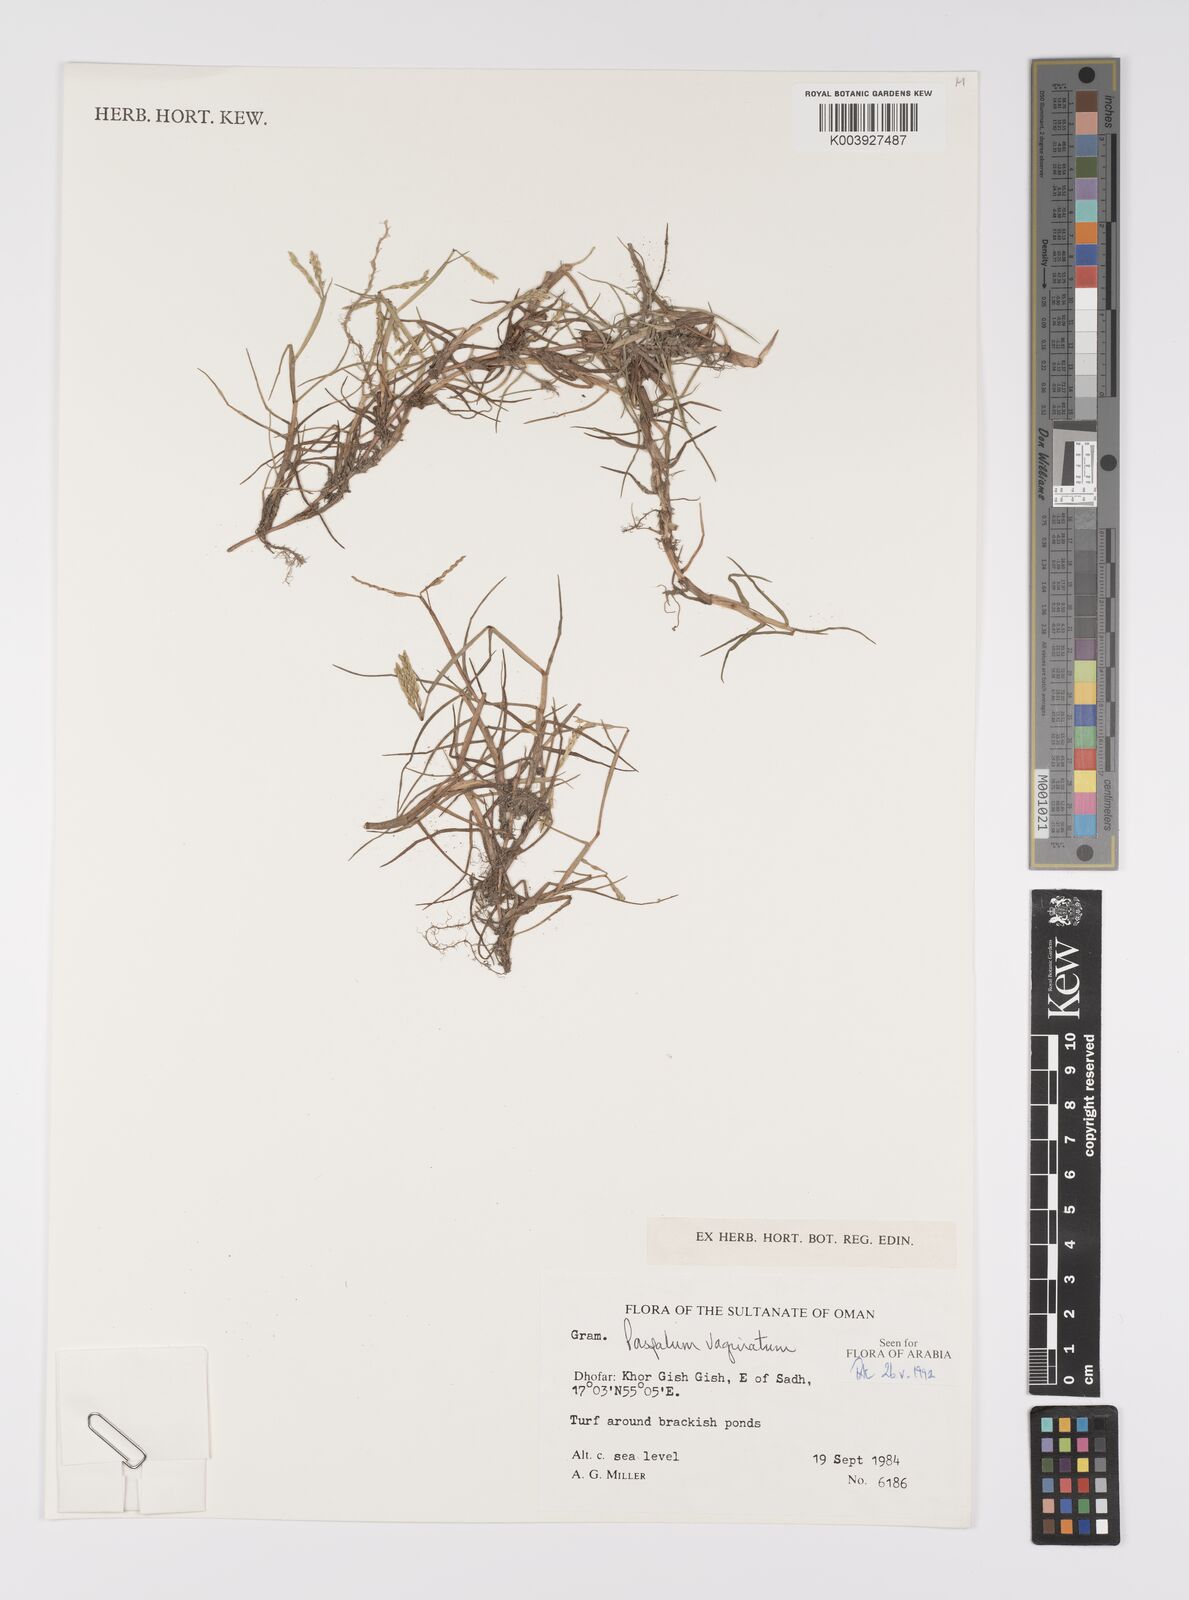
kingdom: Plantae
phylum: Tracheophyta
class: Liliopsida
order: Poales
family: Poaceae
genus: Paspalum
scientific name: Paspalum vaginatum
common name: Seashore paspalum
